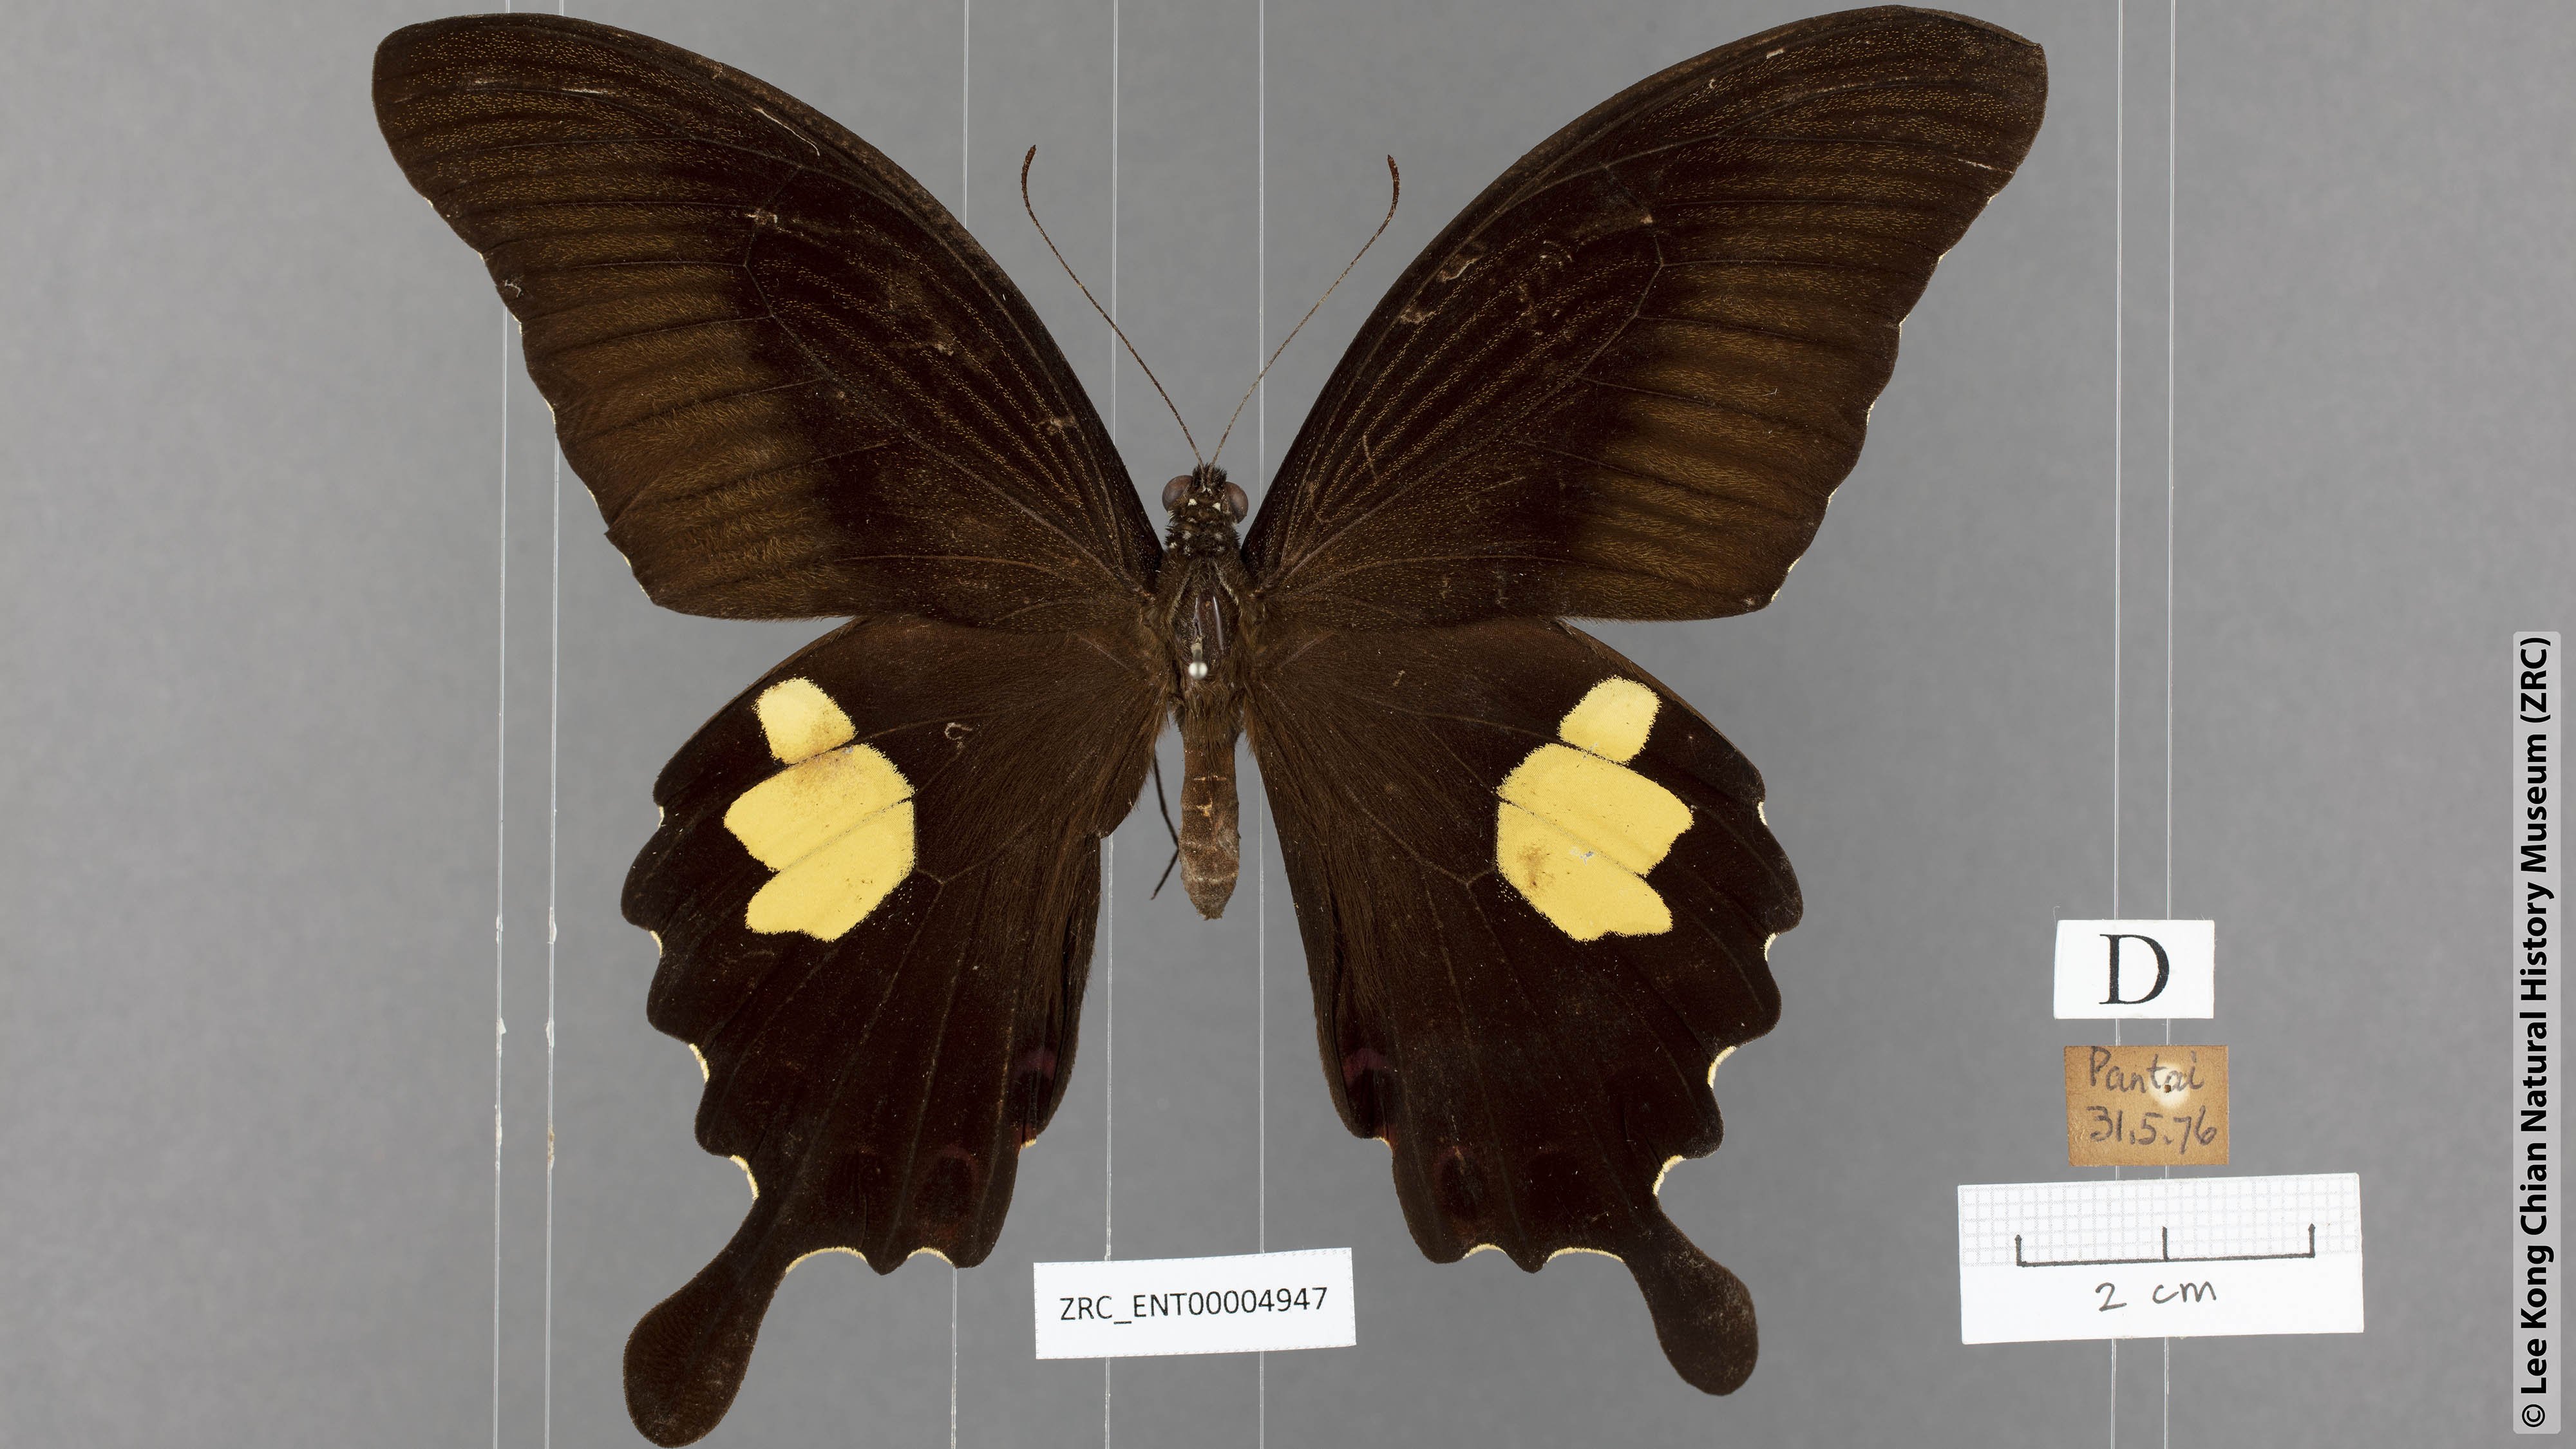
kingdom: Animalia
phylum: Arthropoda
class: Insecta
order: Lepidoptera
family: Papilionidae
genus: Papilio
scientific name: Papilio helenus
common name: Red helen
